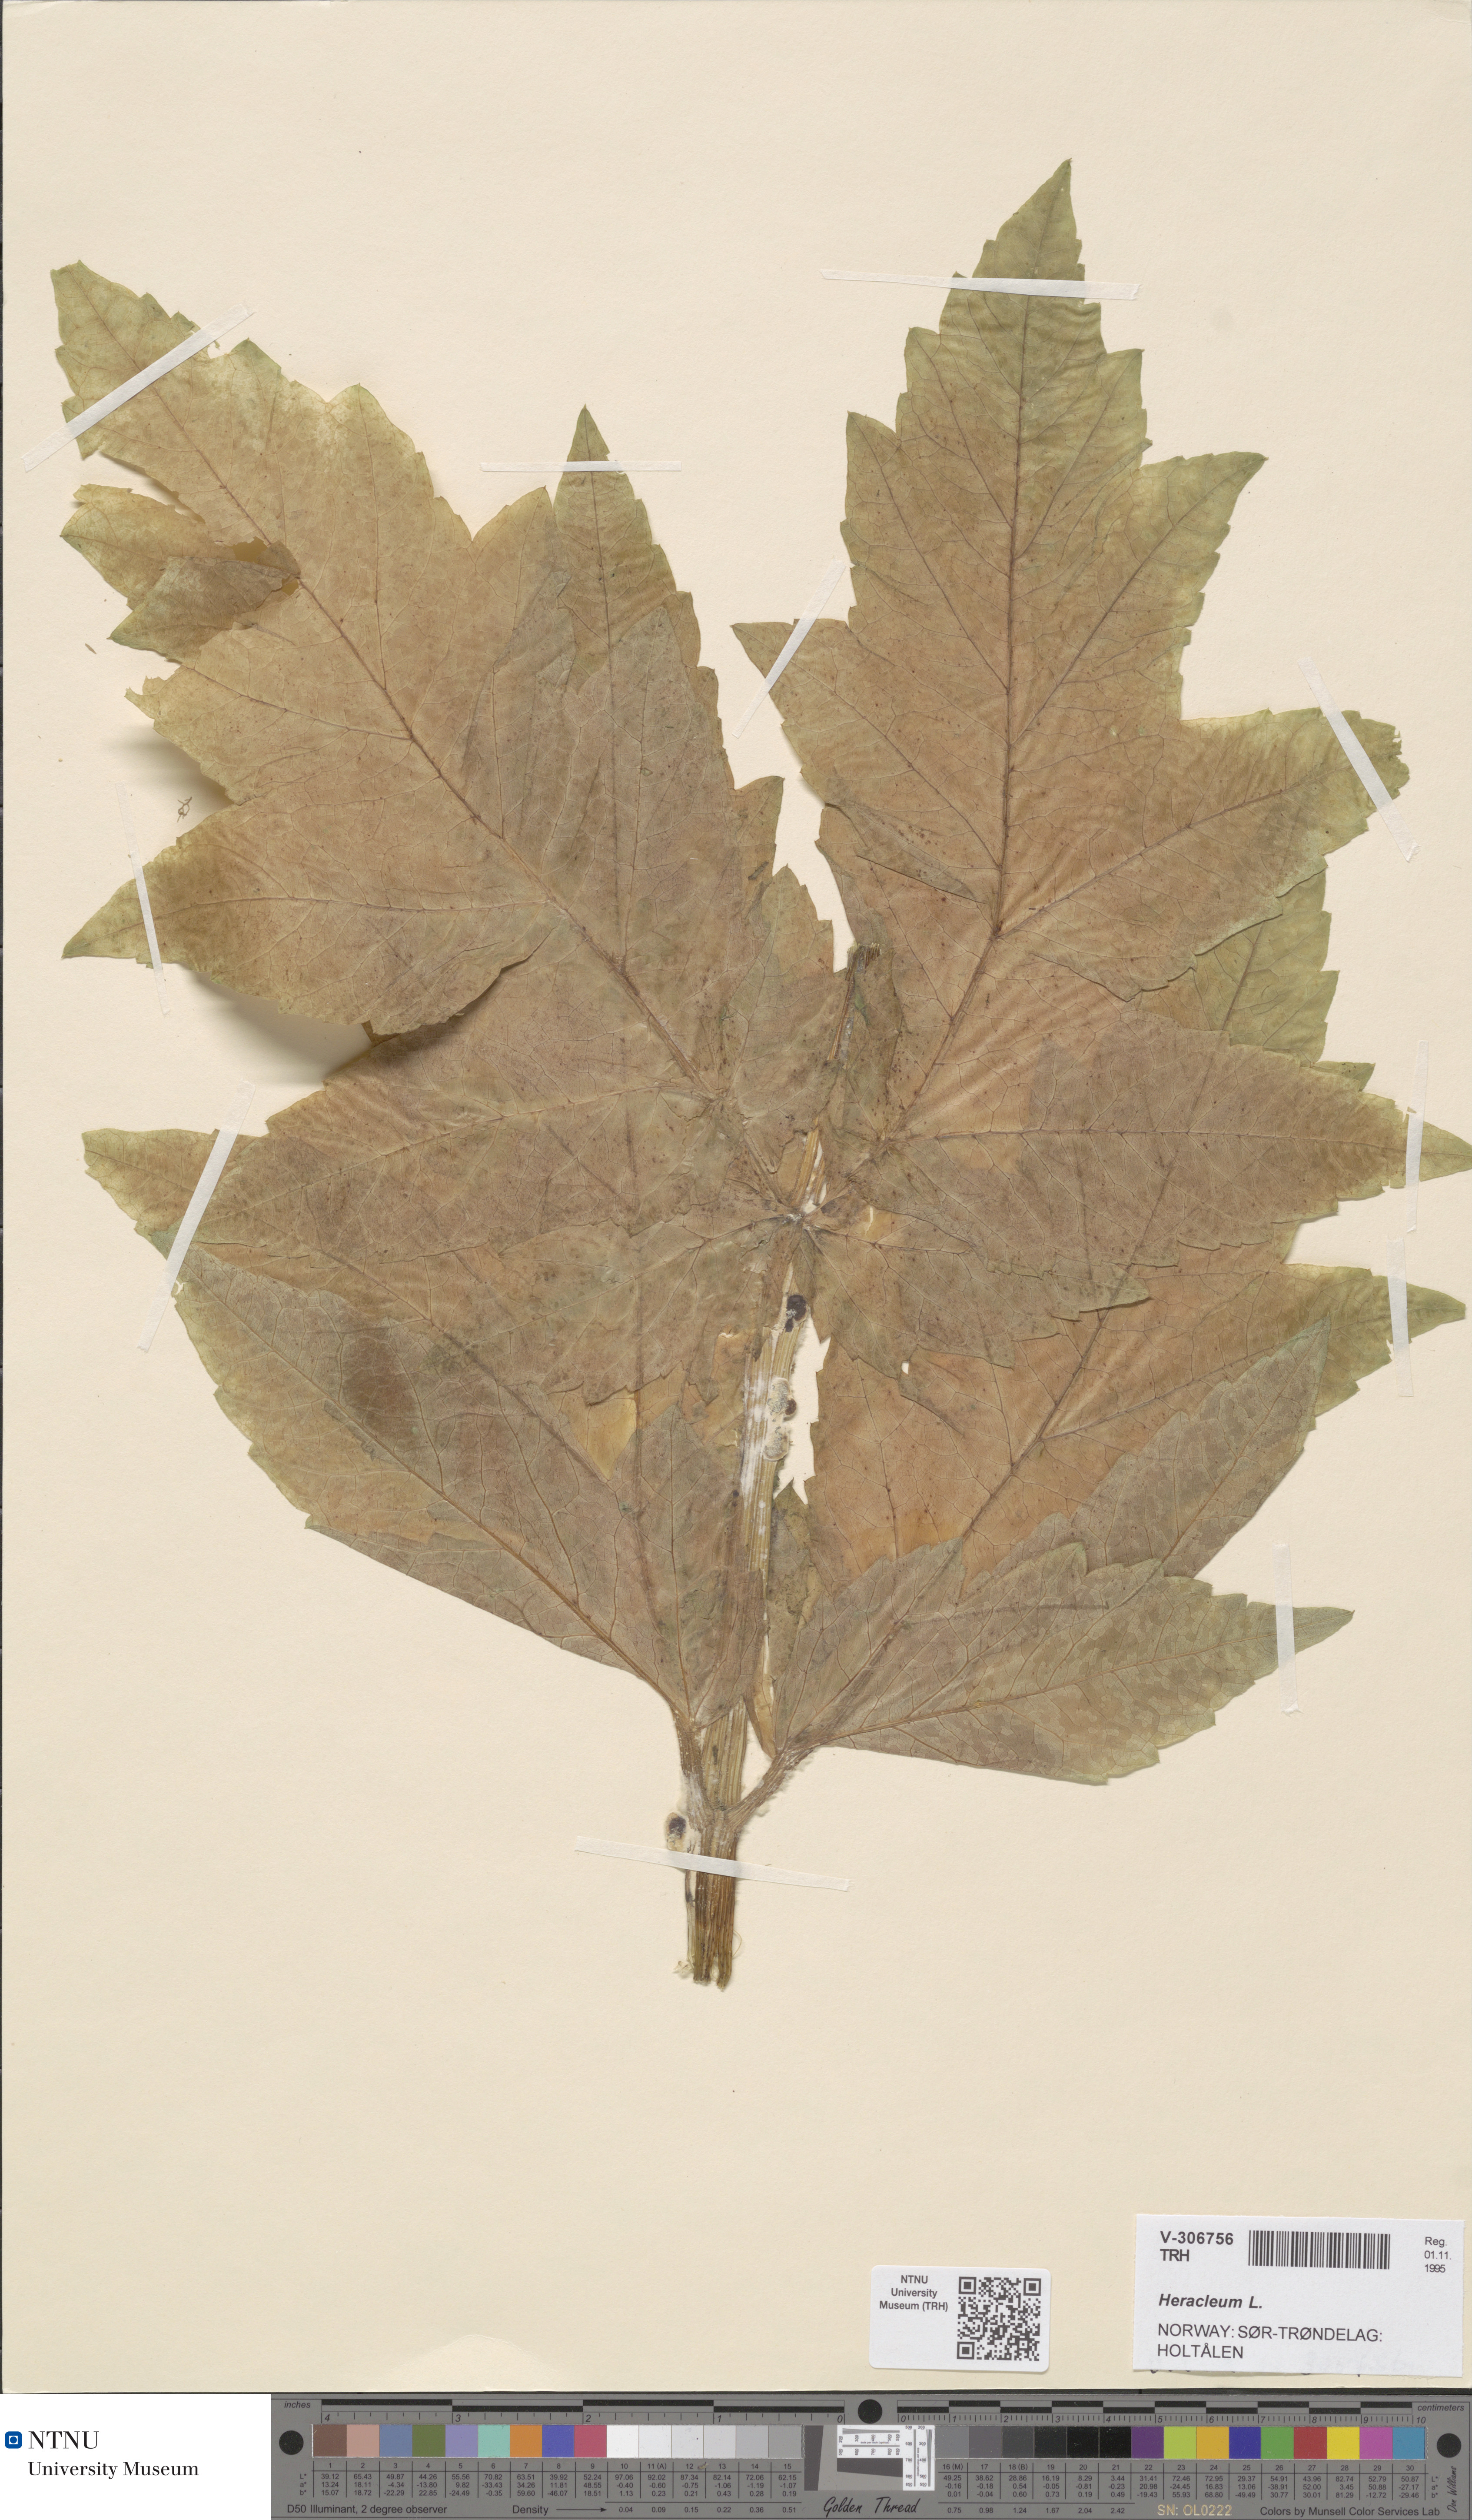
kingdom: Plantae
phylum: Tracheophyta
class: Magnoliopsida
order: Apiales
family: Apiaceae
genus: Heracleum
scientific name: Heracleum
